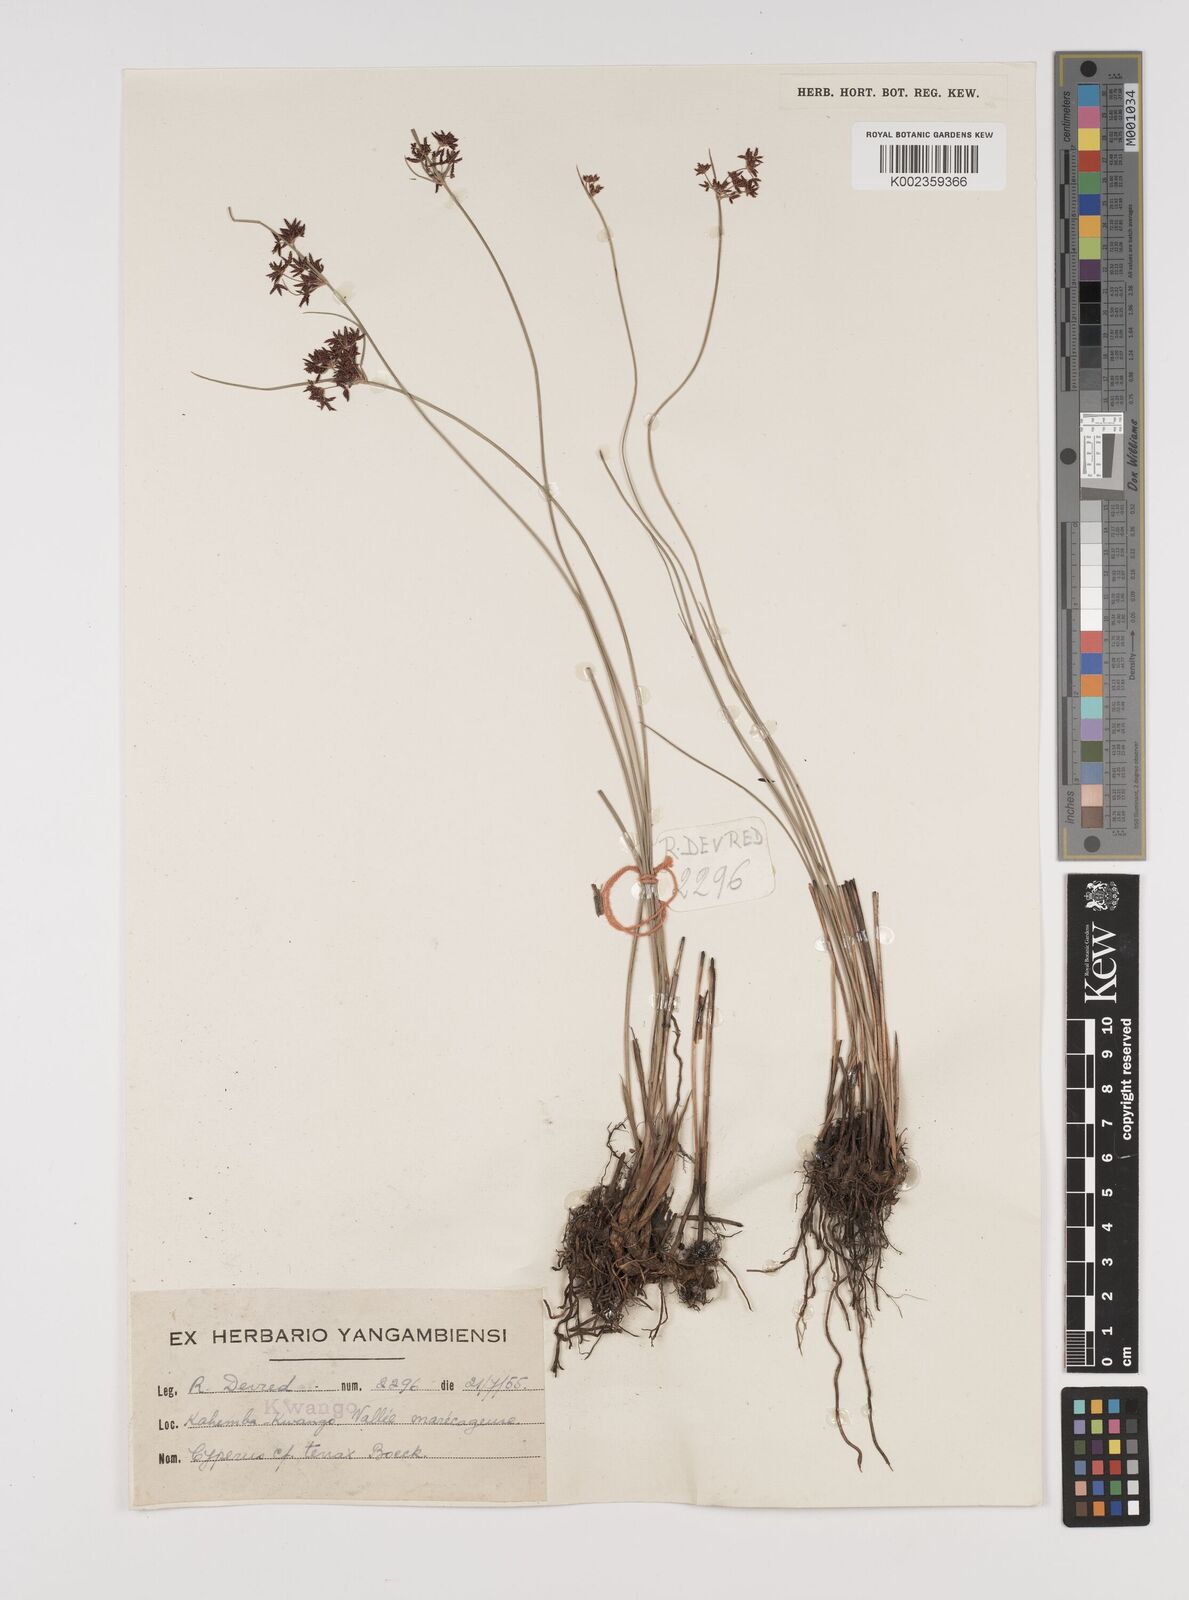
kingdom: Plantae
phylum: Tracheophyta
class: Liliopsida
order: Poales
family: Cyperaceae
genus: Cyperus
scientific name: Cyperus platycaulis
